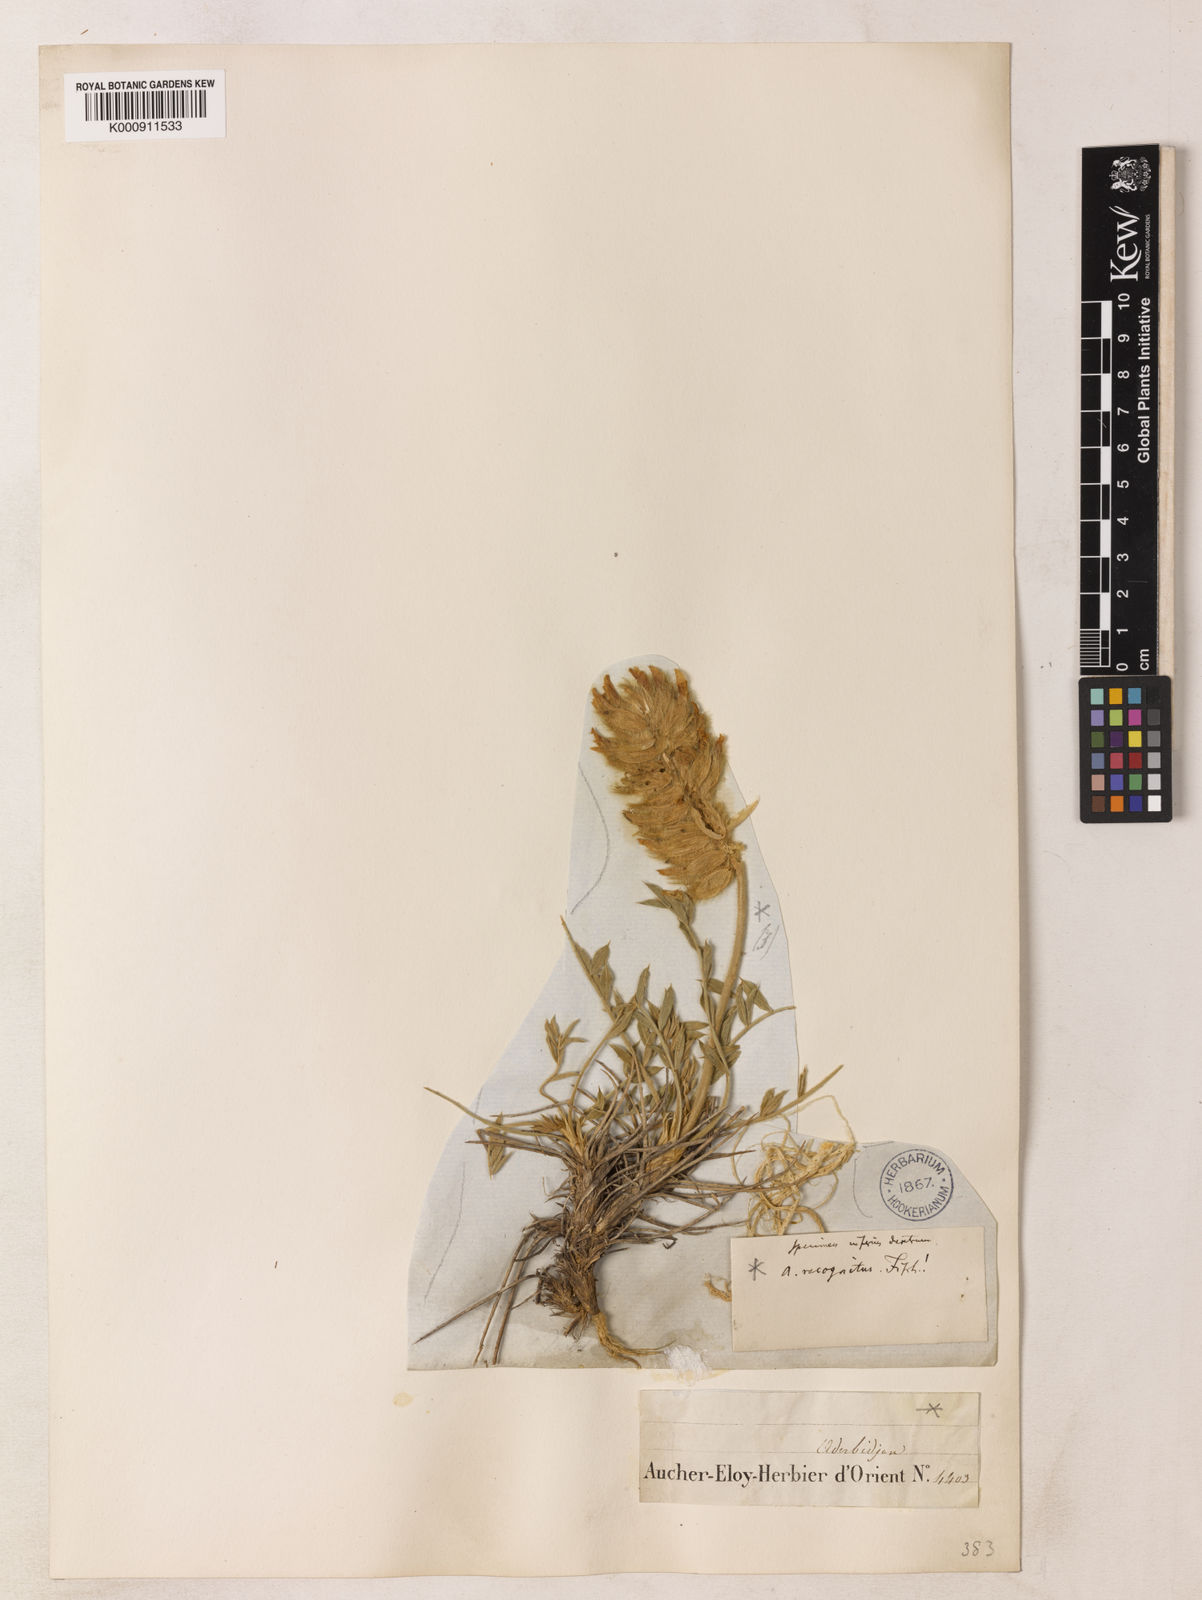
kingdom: Plantae
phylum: Tracheophyta
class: Magnoliopsida
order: Fabales
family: Fabaceae
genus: Astragalus
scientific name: Astragalus recognitus
